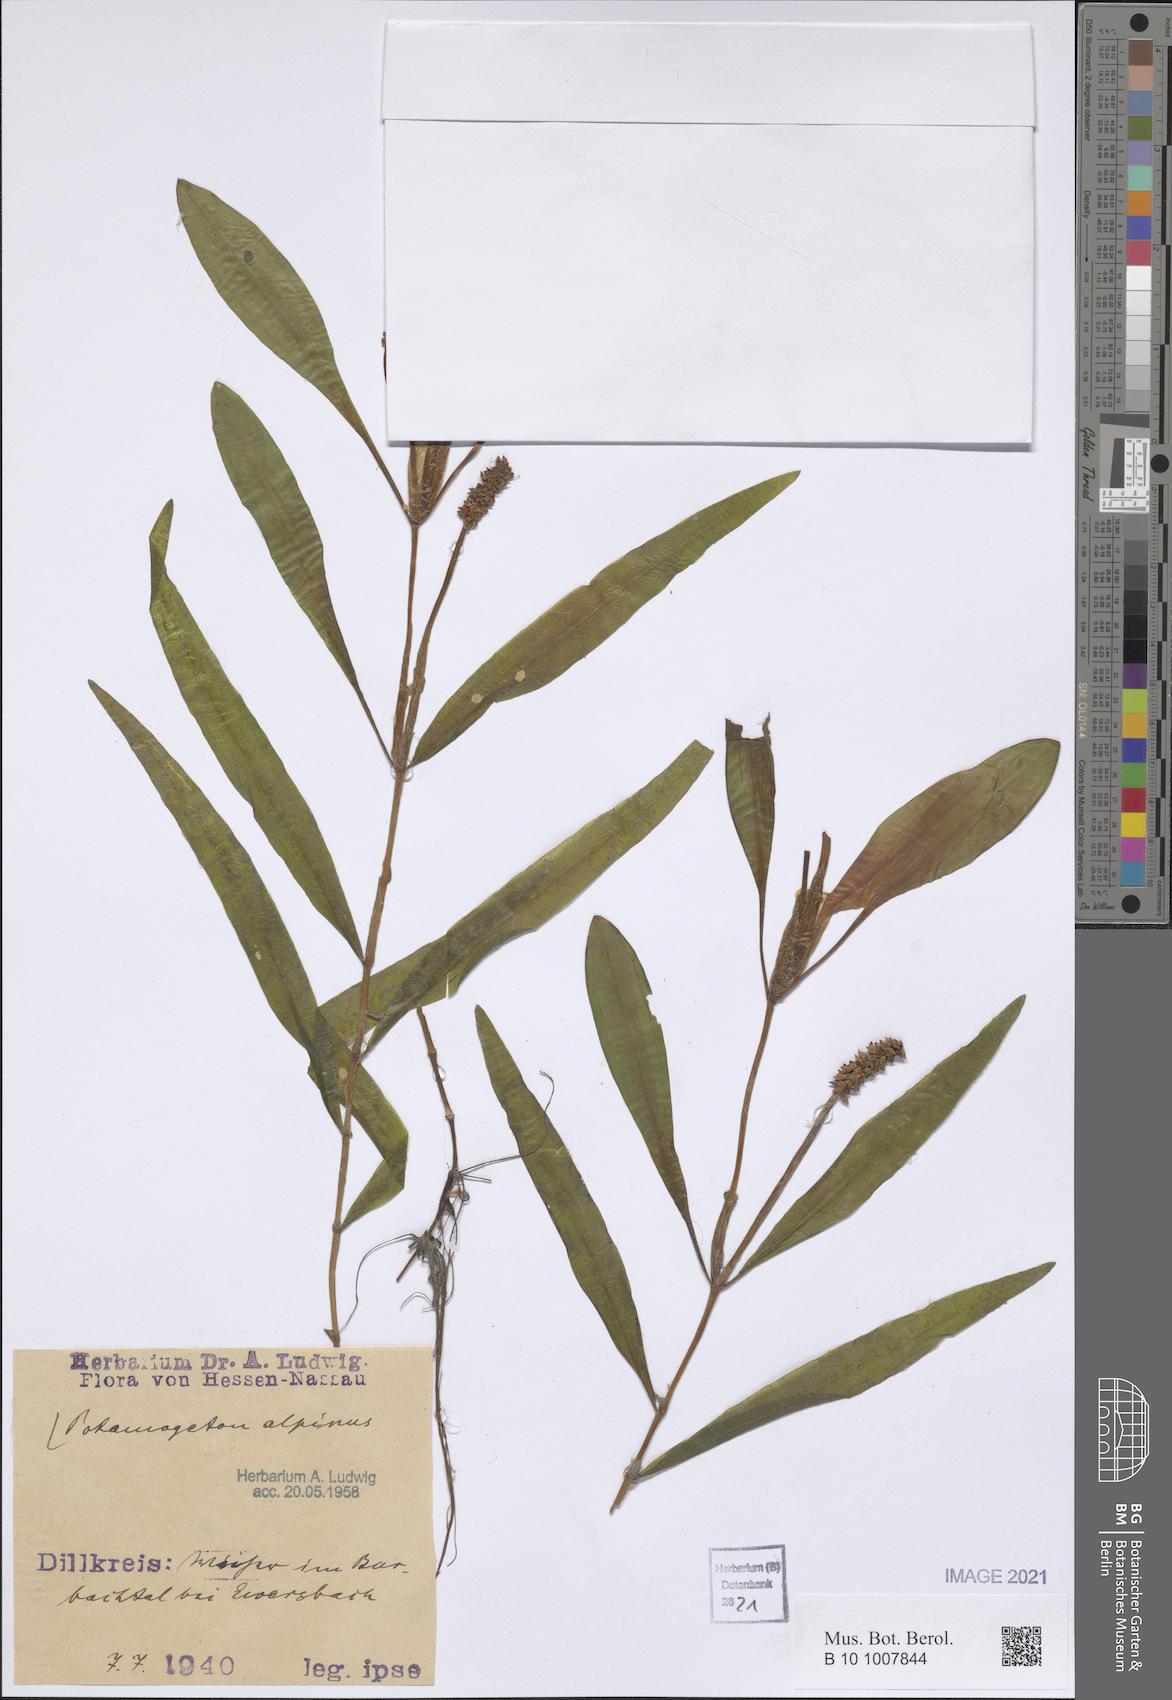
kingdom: Plantae
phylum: Tracheophyta
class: Liliopsida
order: Alismatales
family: Potamogetonaceae
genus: Potamogeton
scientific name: Potamogeton alpinus
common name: Red pondweed
